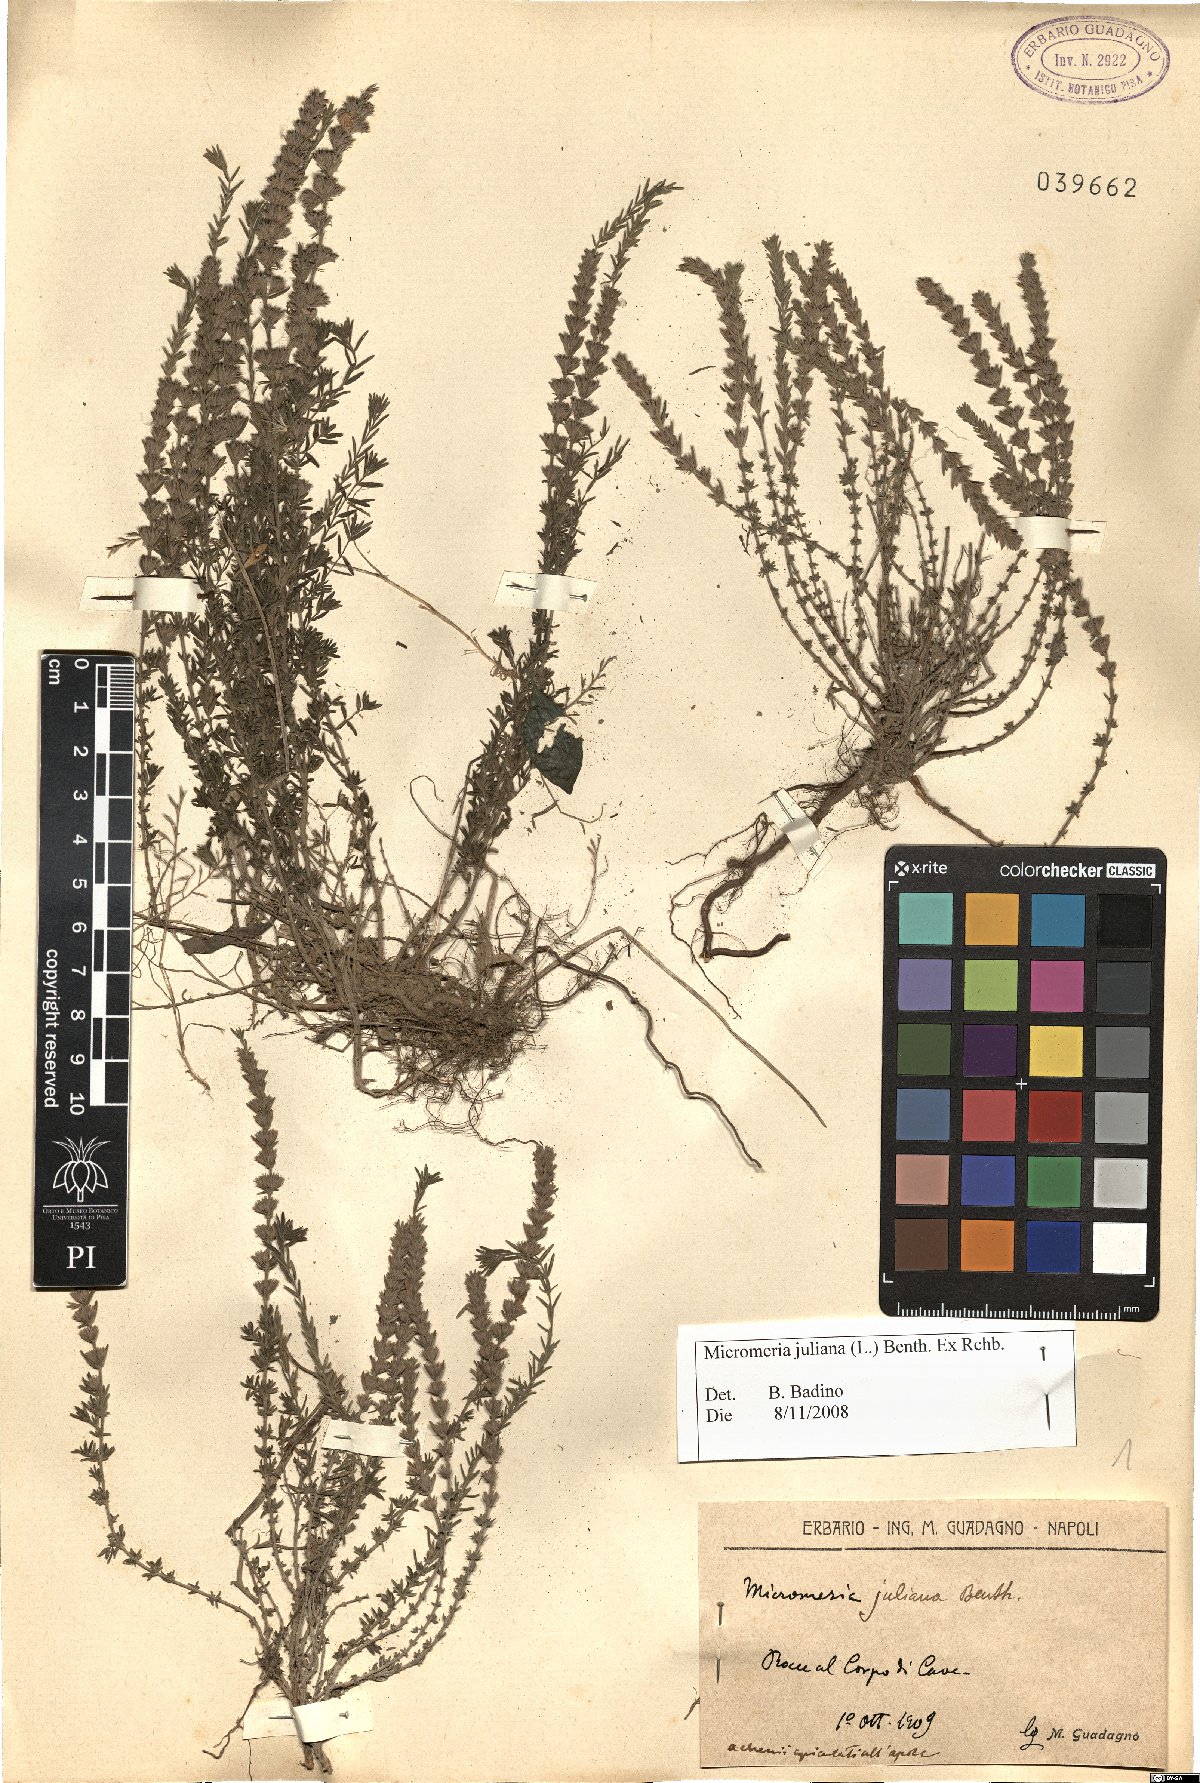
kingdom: Plantae
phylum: Tracheophyta
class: Magnoliopsida
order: Lamiales
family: Lamiaceae
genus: Micromeria
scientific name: Micromeria juliana
